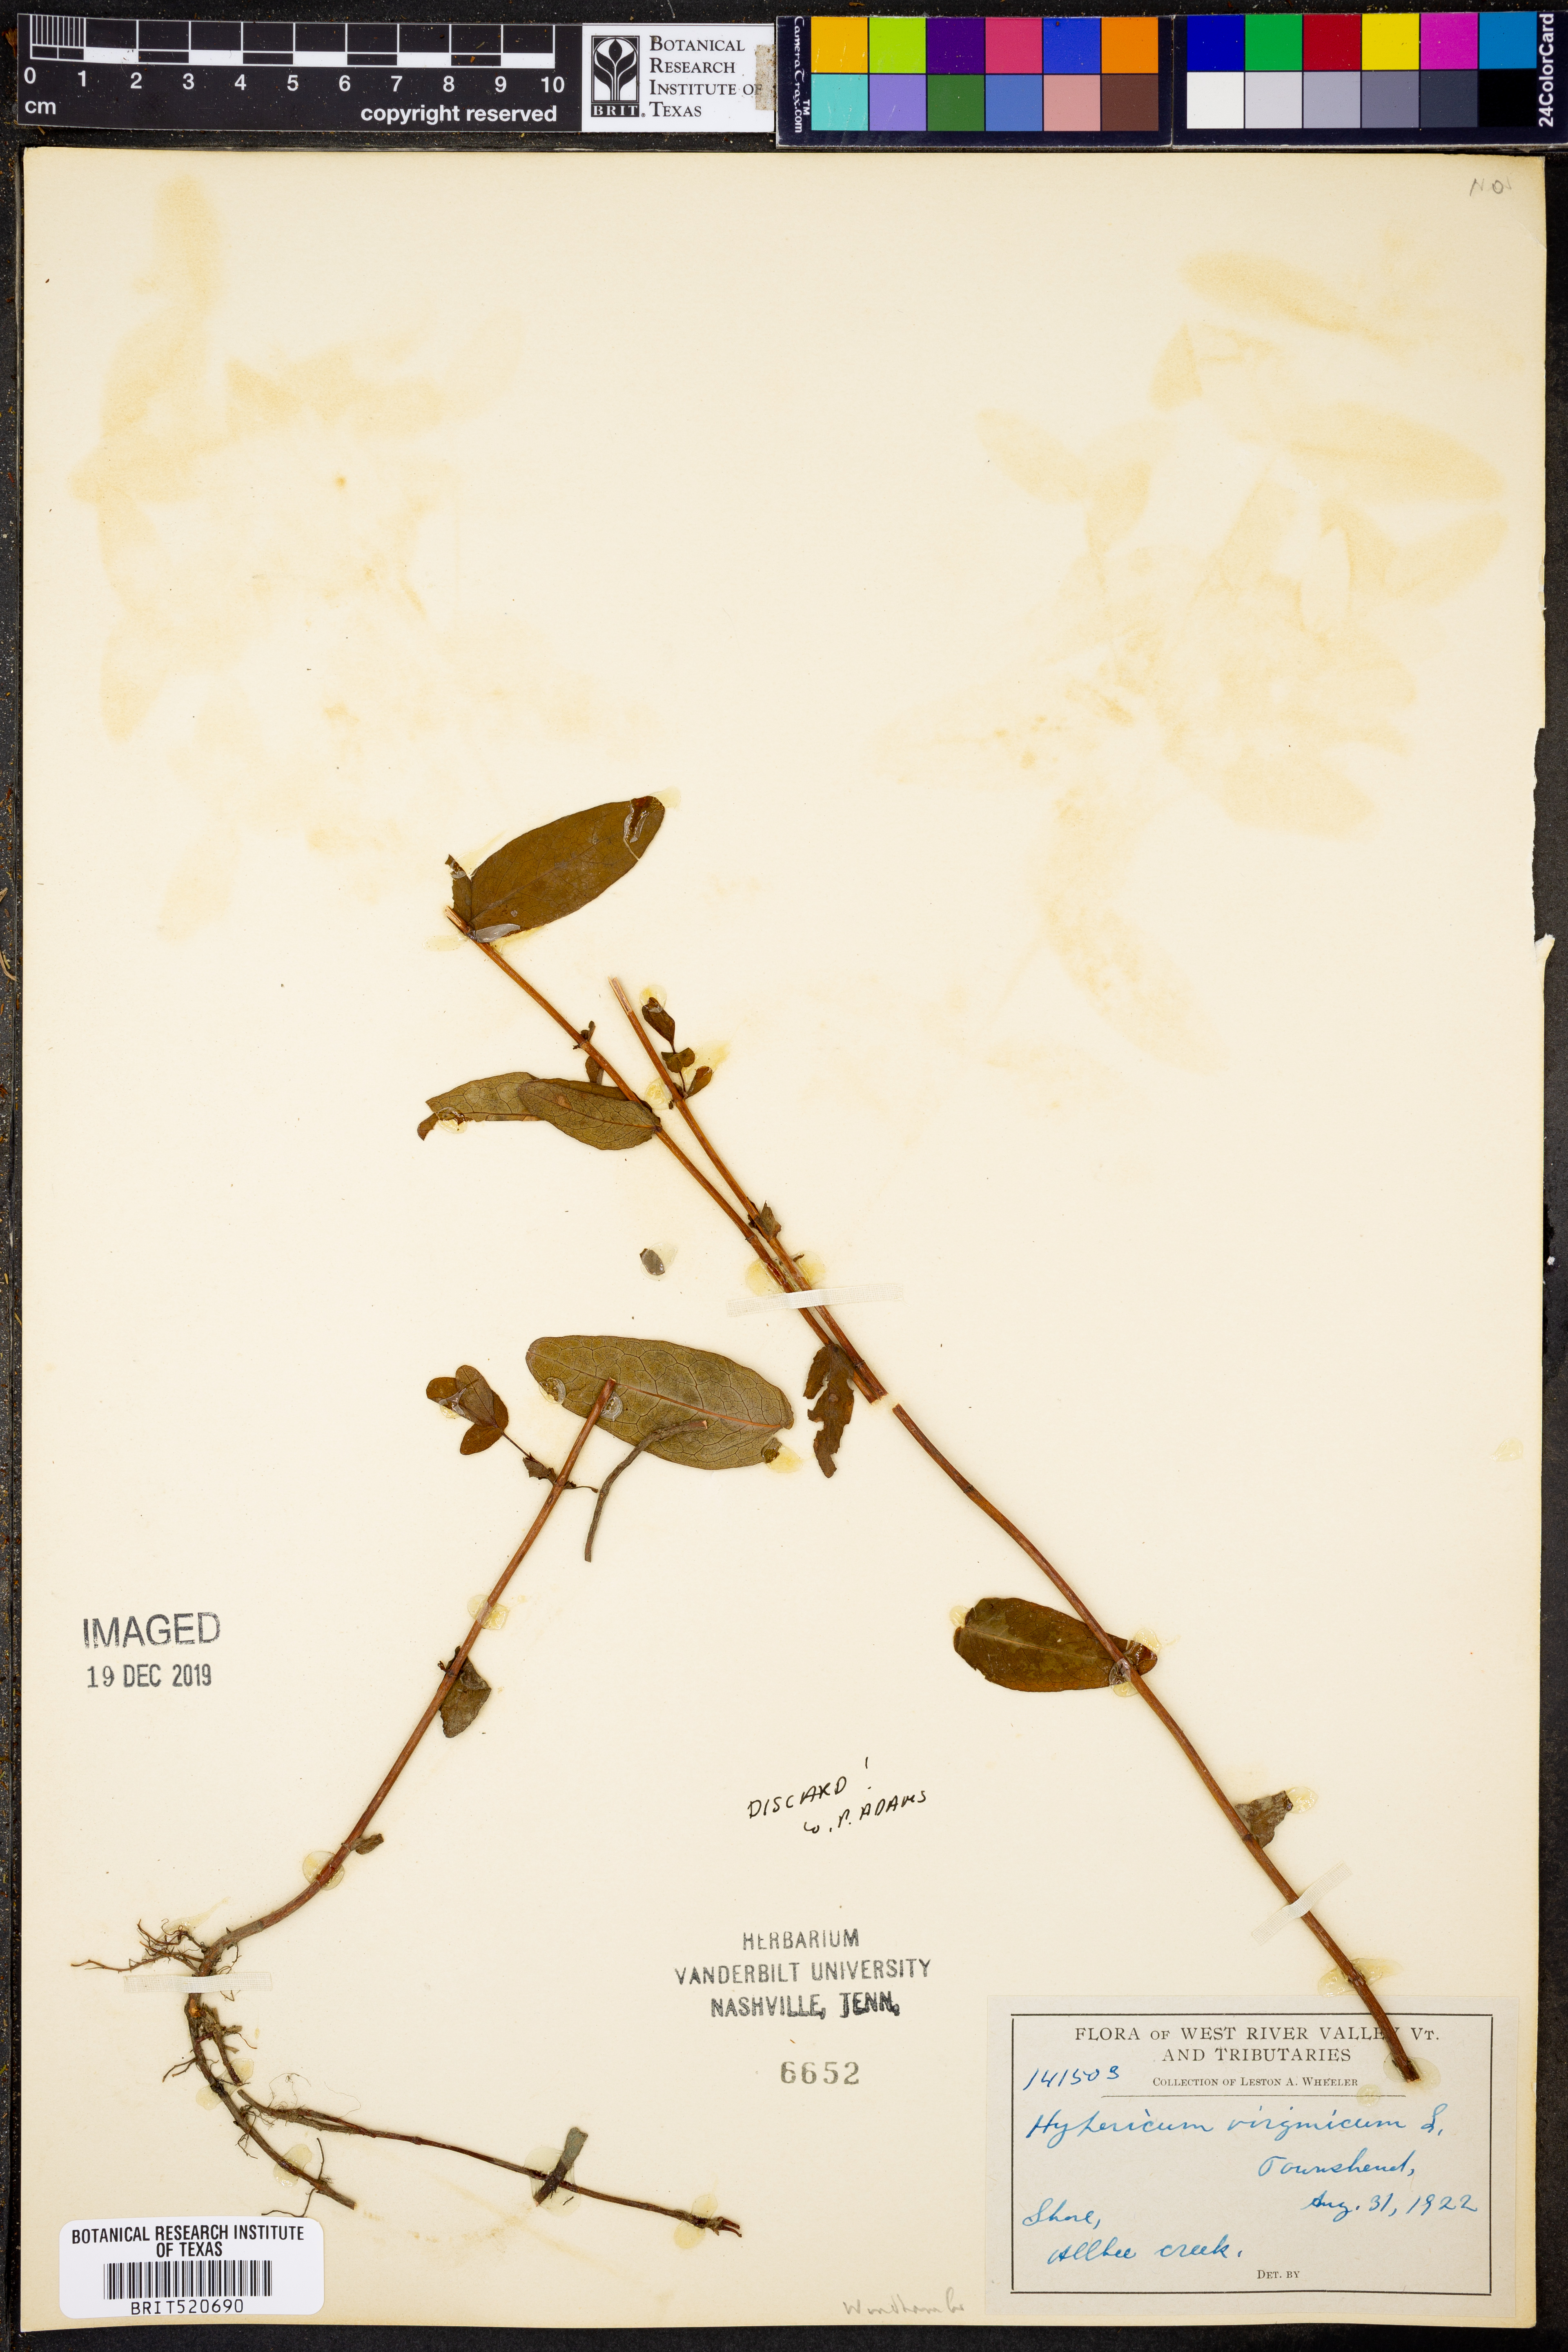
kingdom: Plantae
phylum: Tracheophyta
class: Magnoliopsida
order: Malpighiales
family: Hypericaceae
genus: Triadenum
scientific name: Triadenum virginicum
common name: Marsh st. john's-wort
